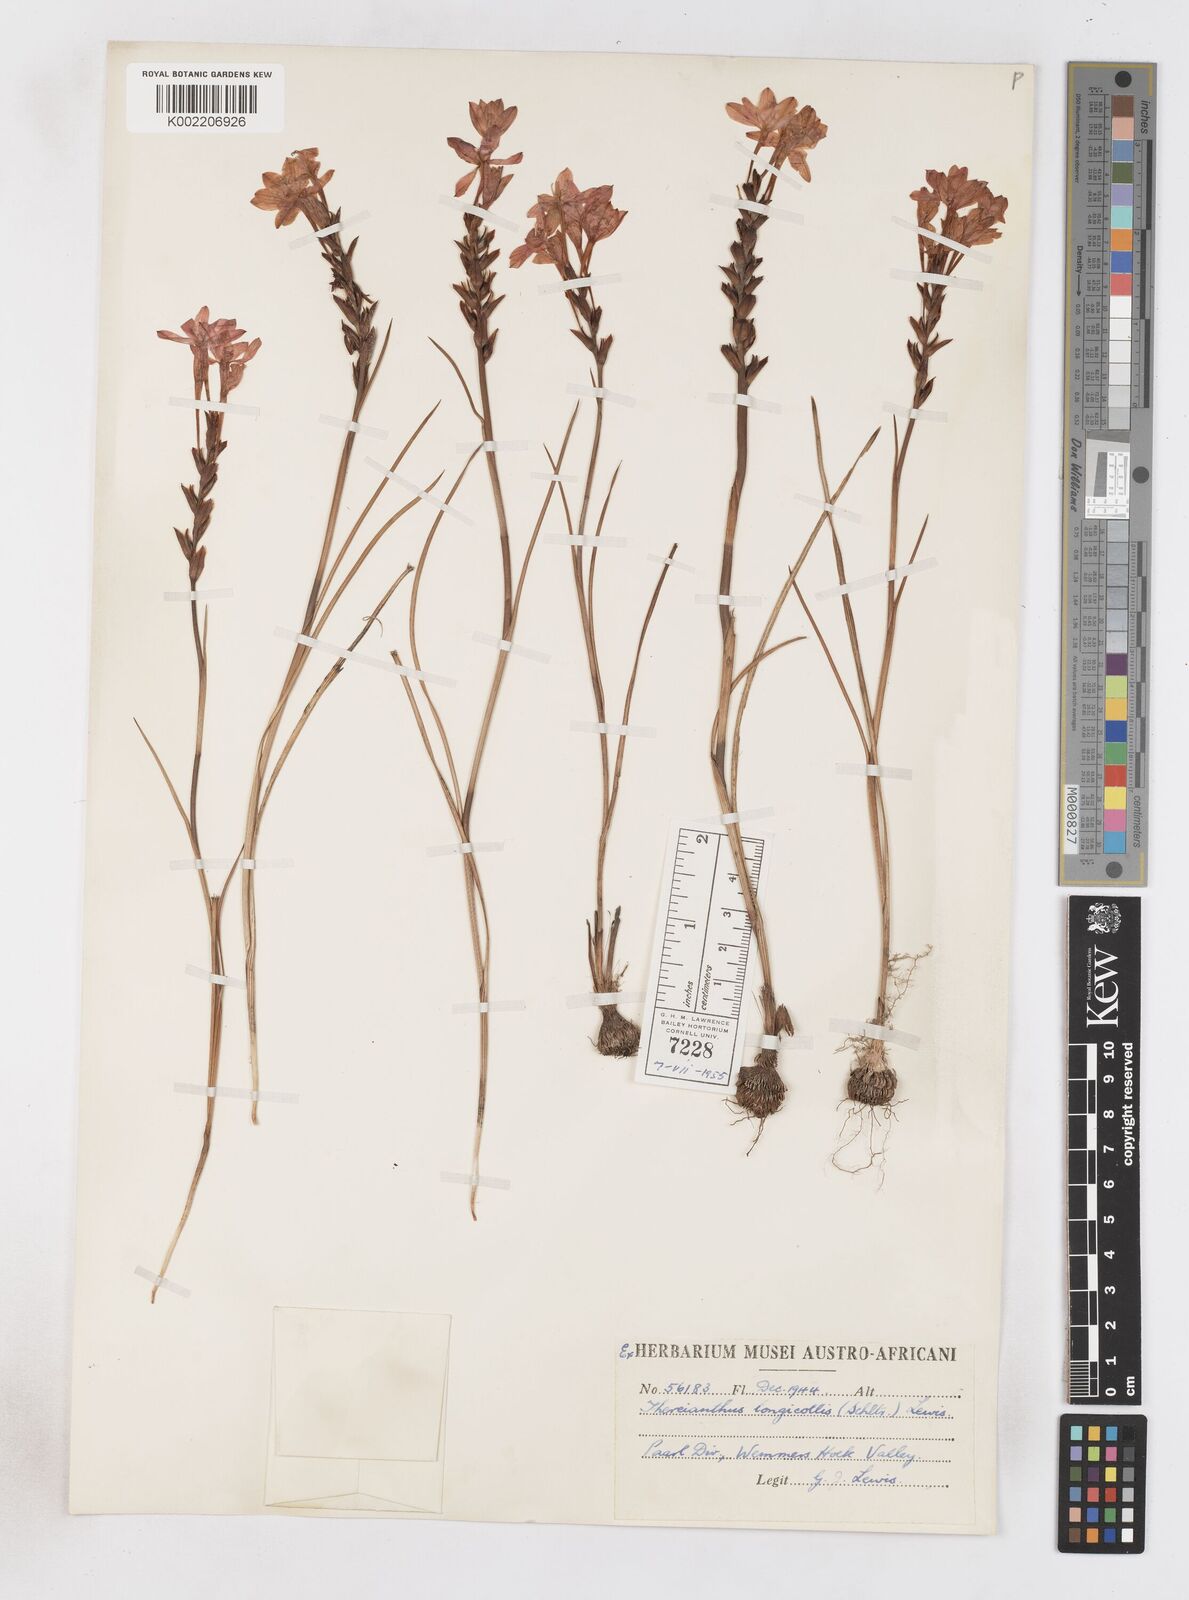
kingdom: Plantae
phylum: Tracheophyta
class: Magnoliopsida
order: Lamiales
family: Acanthaceae
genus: Phaulopsis
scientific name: Phaulopsis barteri
